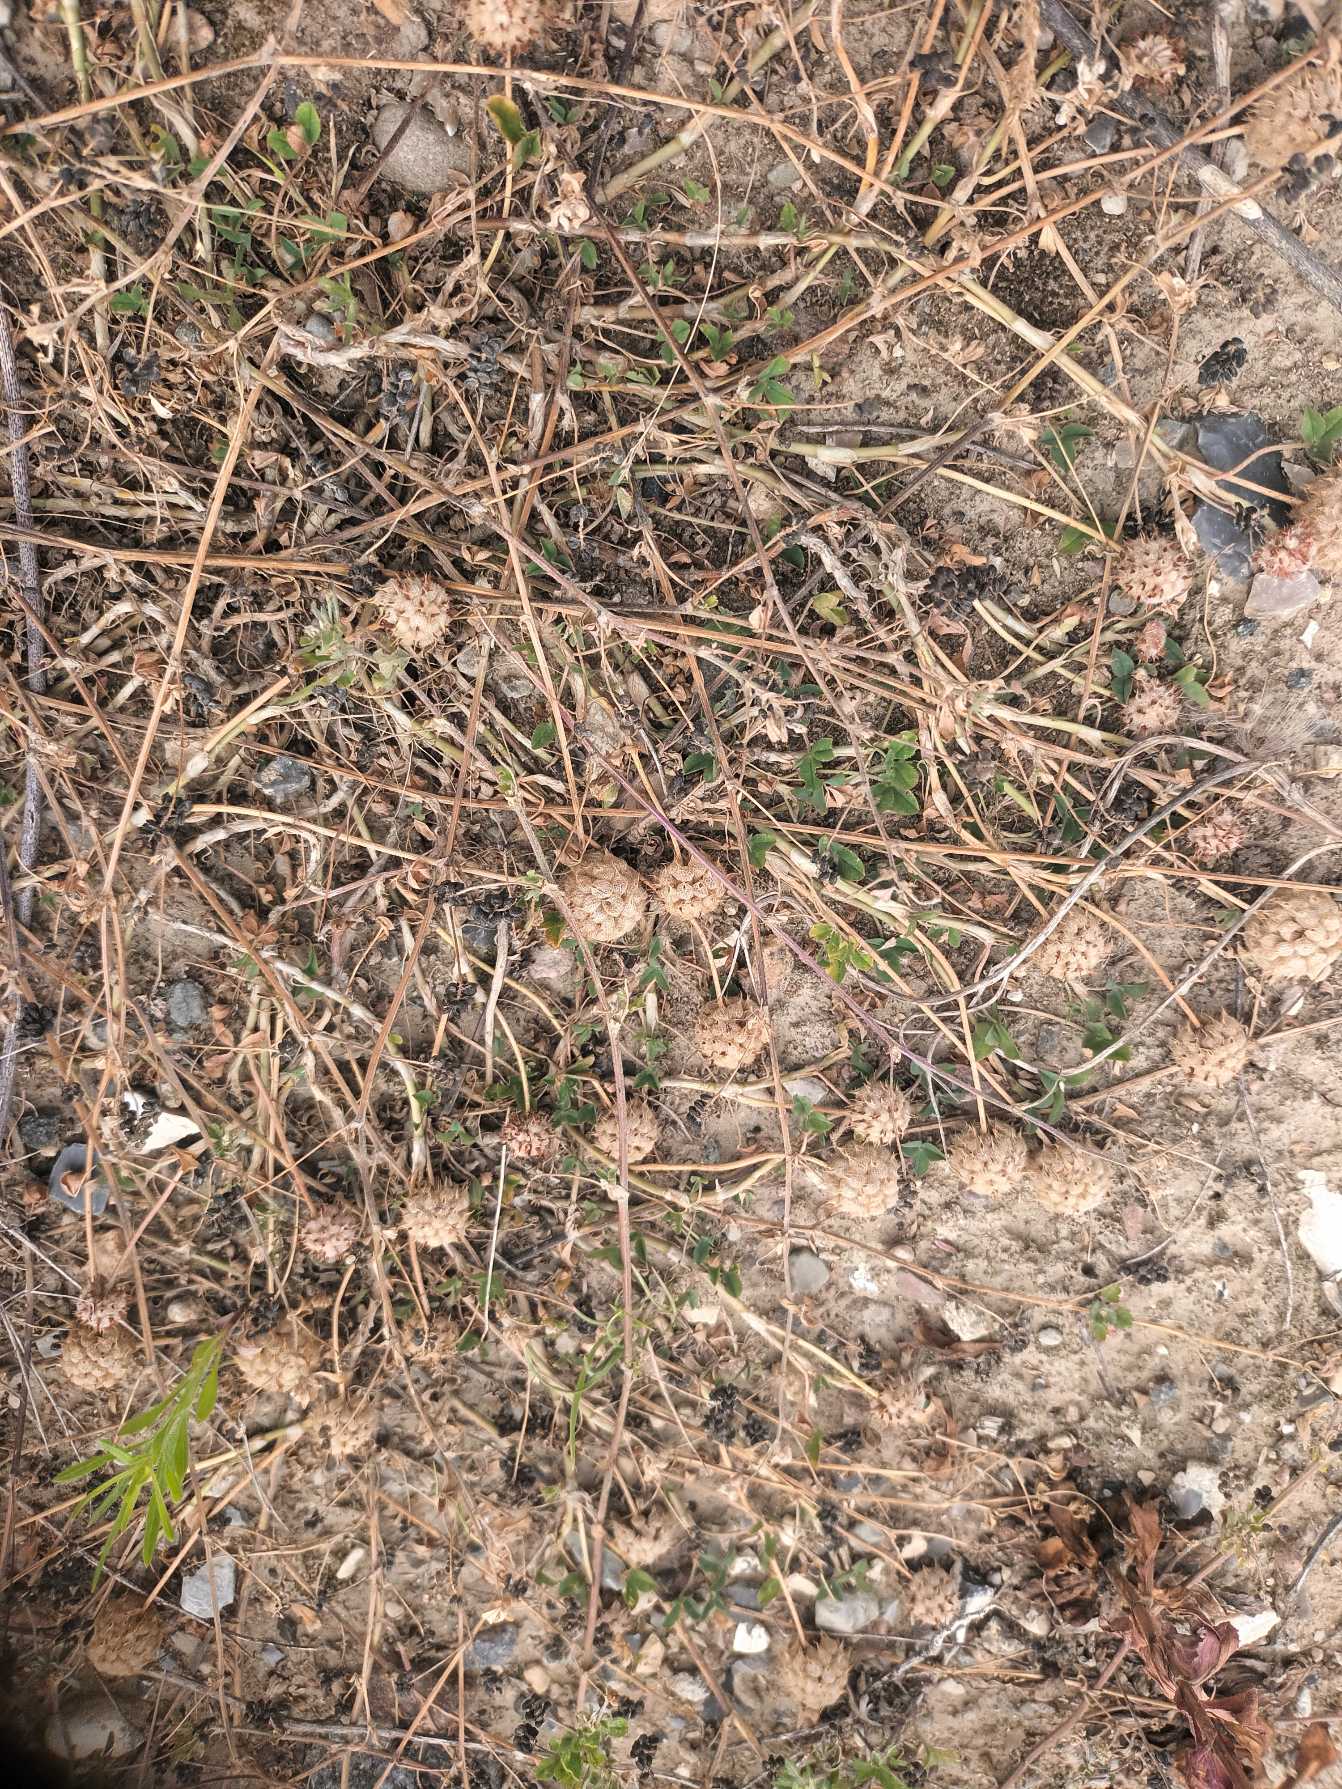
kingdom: Plantae
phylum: Tracheophyta
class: Magnoliopsida
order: Fabales
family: Fabaceae
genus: Trifolium
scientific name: Trifolium fragiferum
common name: Jordbær-kløver
